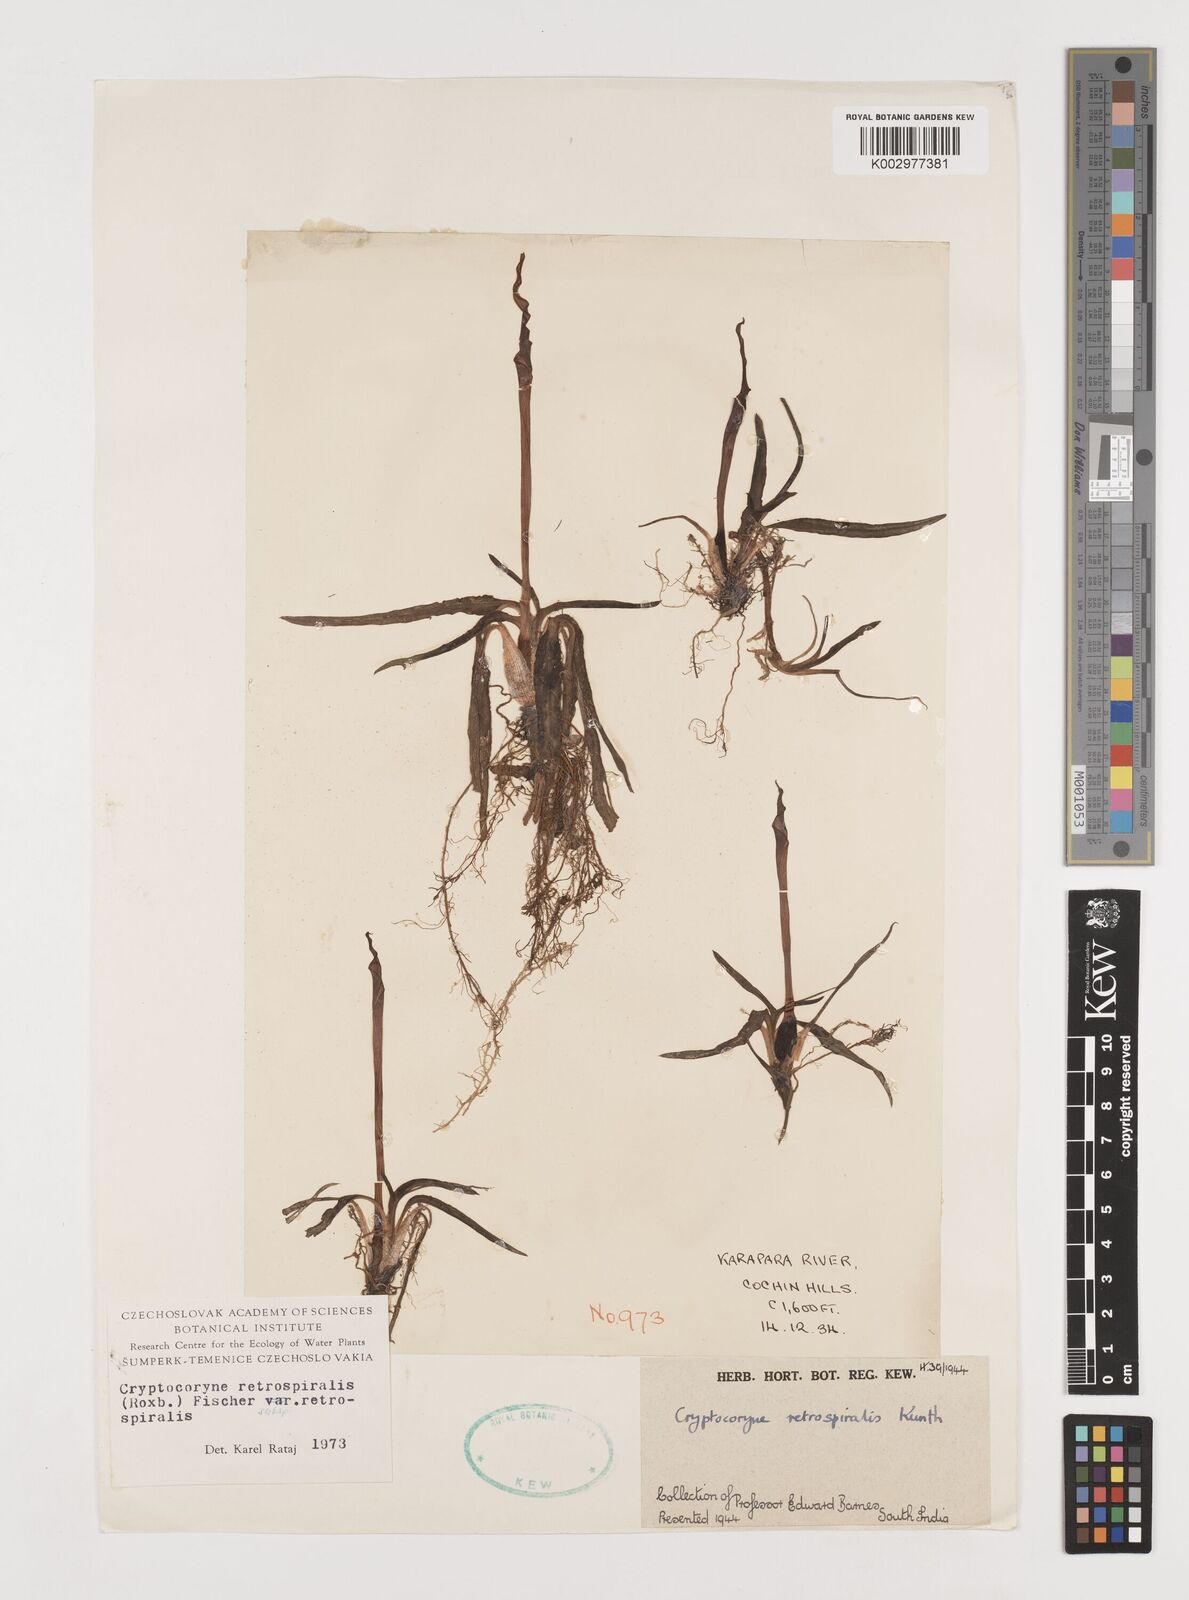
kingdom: Plantae
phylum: Tracheophyta
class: Liliopsida
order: Alismatales
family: Araceae
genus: Cryptocoryne
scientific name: Cryptocoryne retrospiralis
